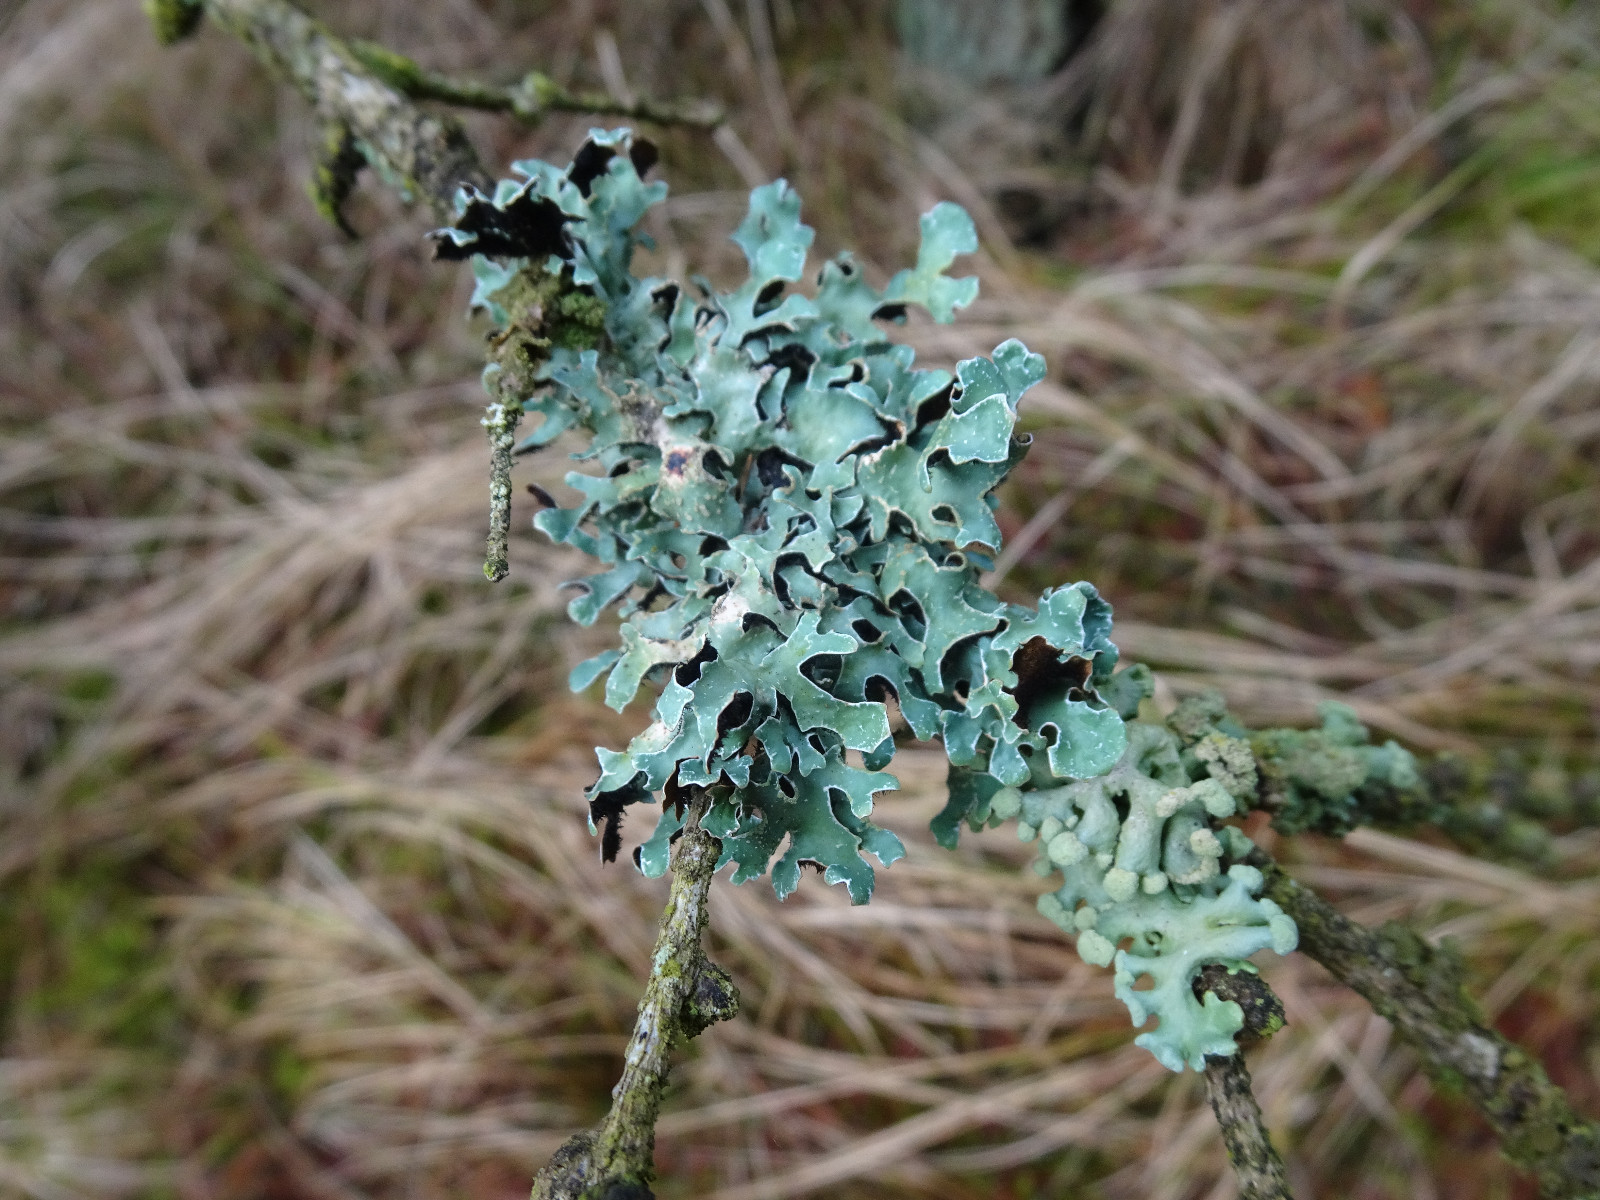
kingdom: Fungi
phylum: Ascomycota
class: Lecanoromycetes
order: Lecanorales
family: Parmeliaceae
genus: Parmelia
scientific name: Parmelia sulcata
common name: rynket skållav
